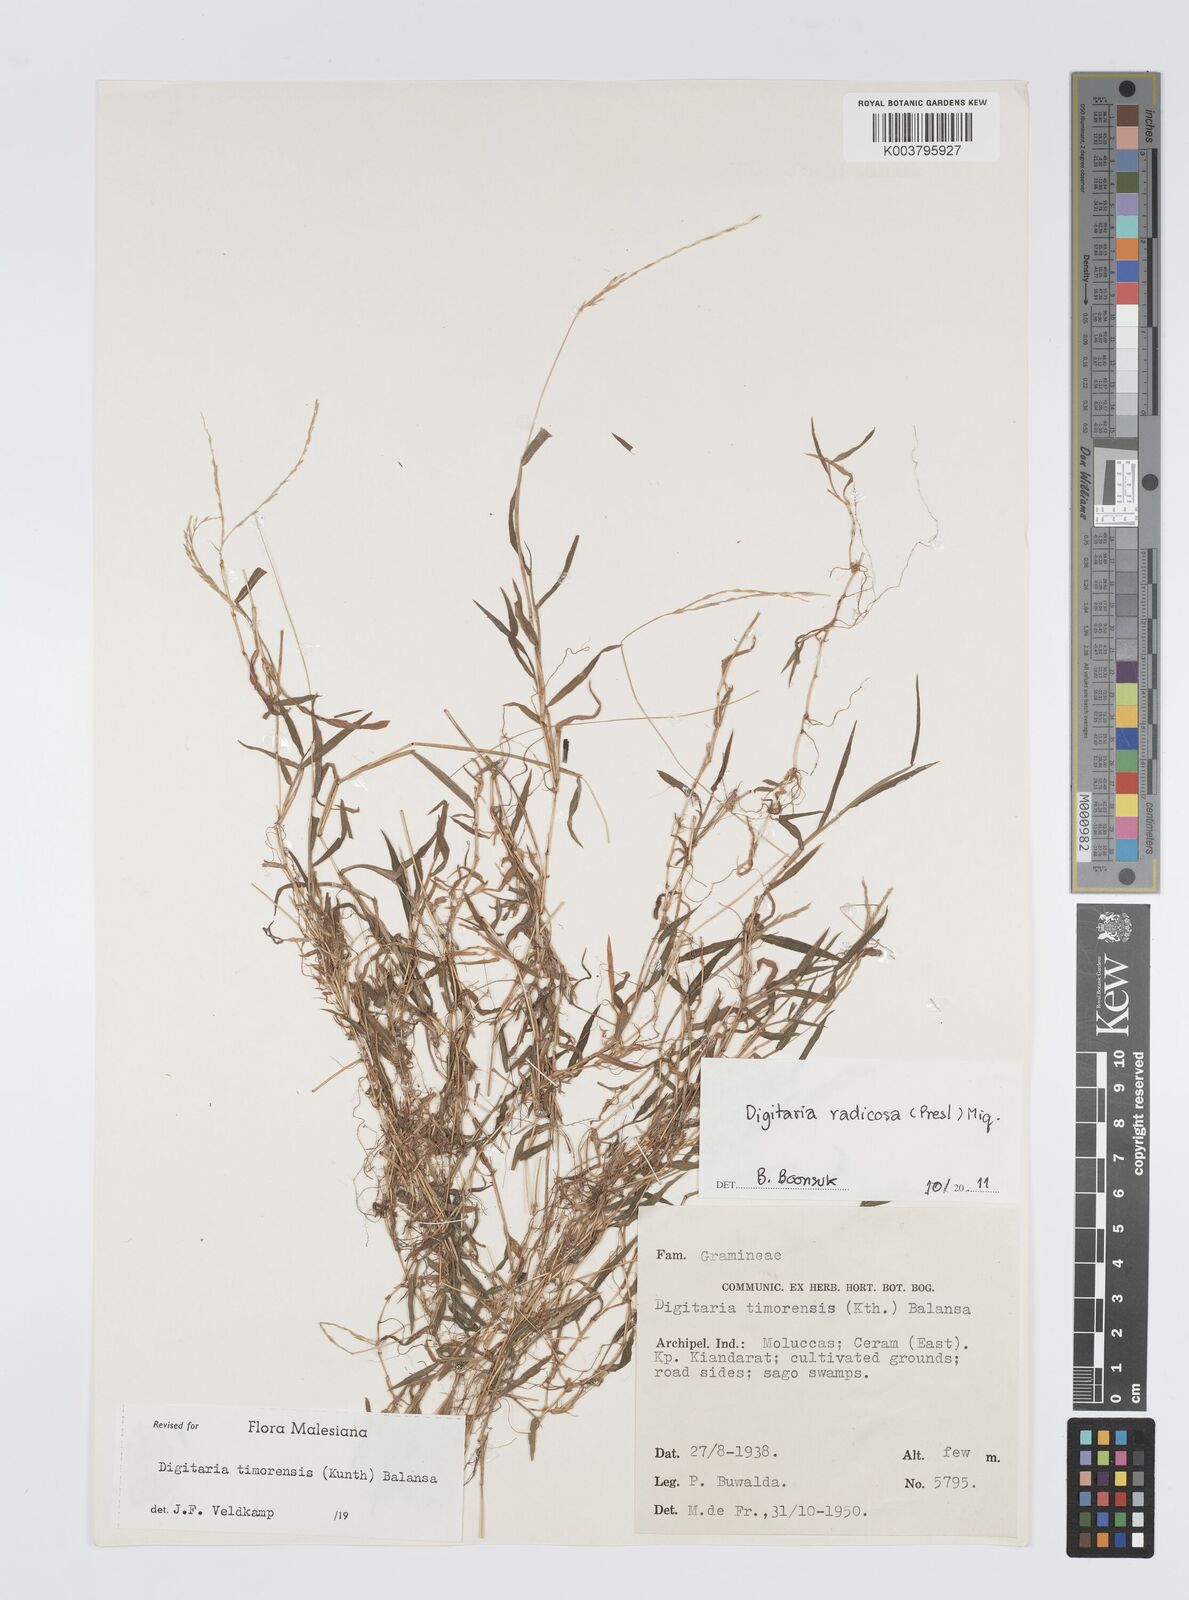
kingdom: Plantae
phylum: Tracheophyta
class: Liliopsida
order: Poales
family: Poaceae
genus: Digitaria
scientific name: Digitaria radicosa
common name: Trailing crabgrass
